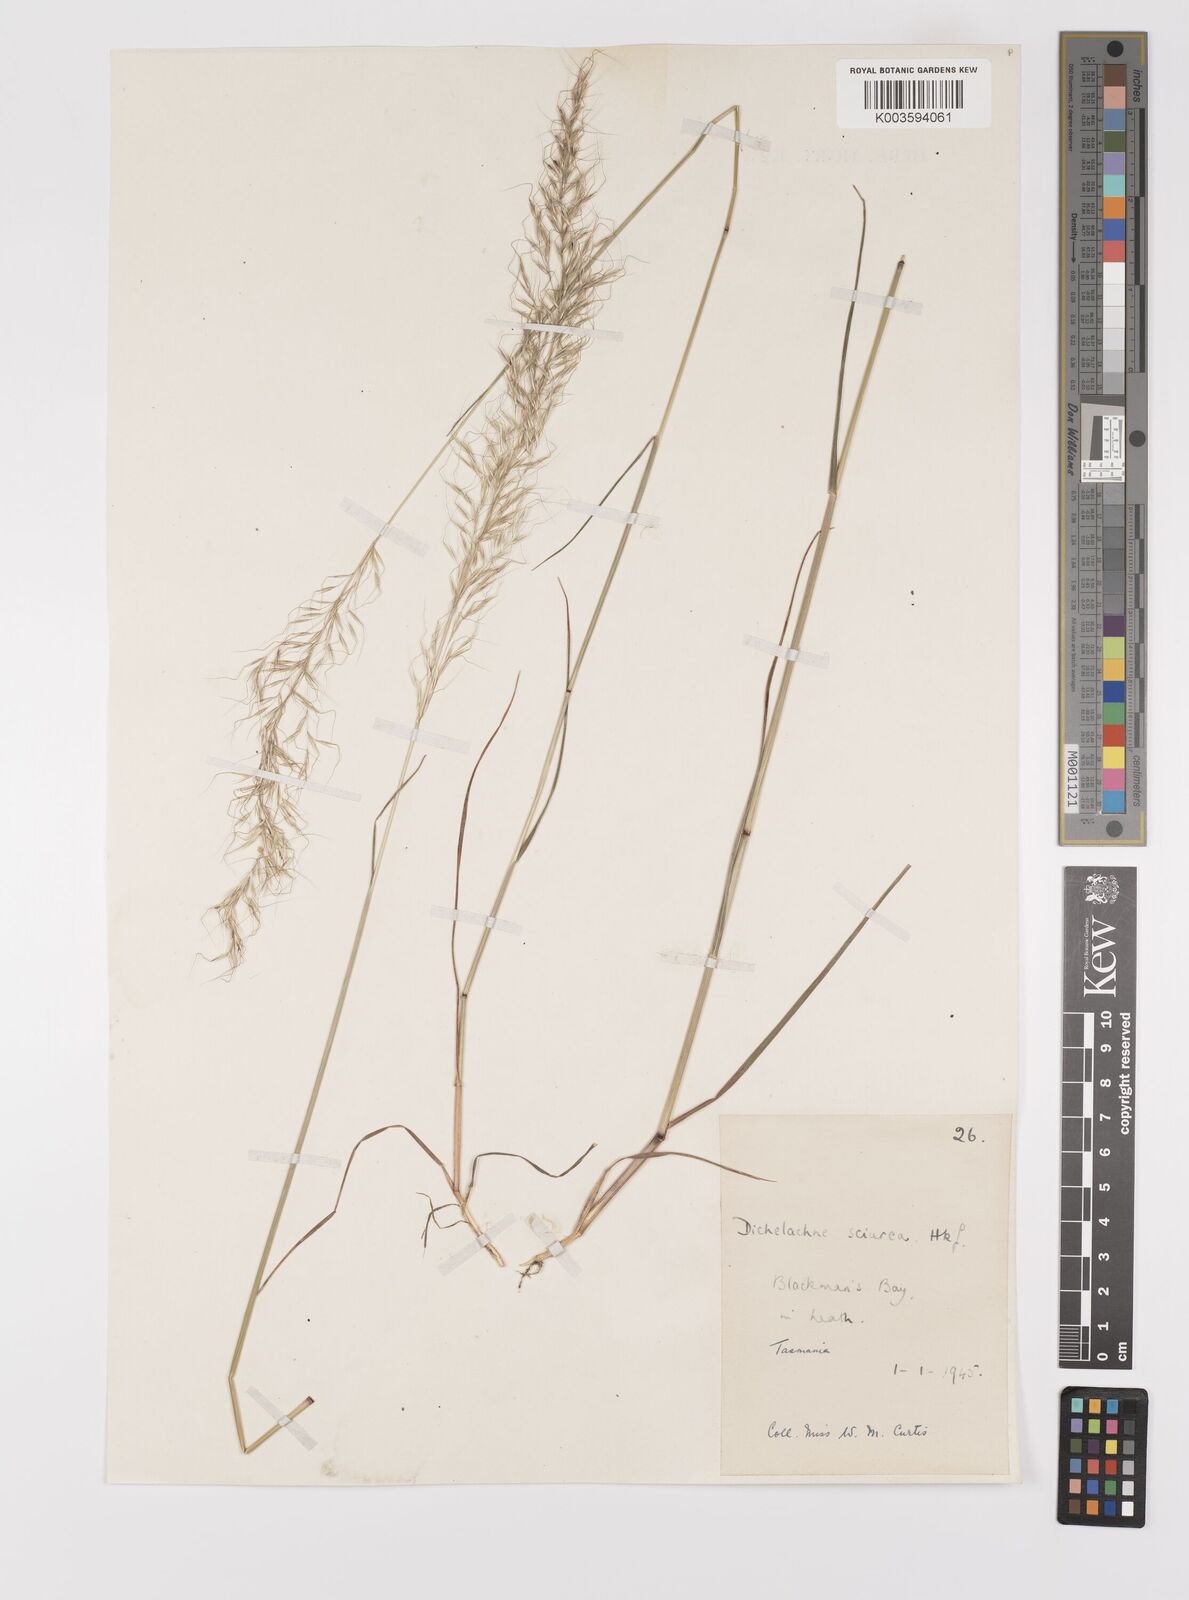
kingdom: Plantae
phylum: Tracheophyta
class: Liliopsida
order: Poales
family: Poaceae
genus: Dichelachne
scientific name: Dichelachne rara
